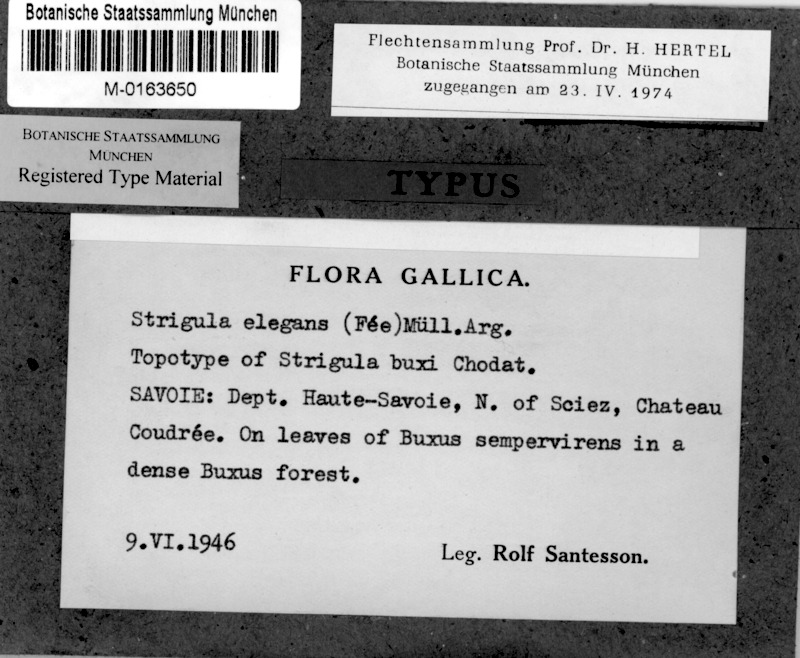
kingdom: Fungi
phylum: Ascomycota
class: Dothideomycetes
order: Strigulales
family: Strigulaceae
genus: Strigula
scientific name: Strigula smaragdula
